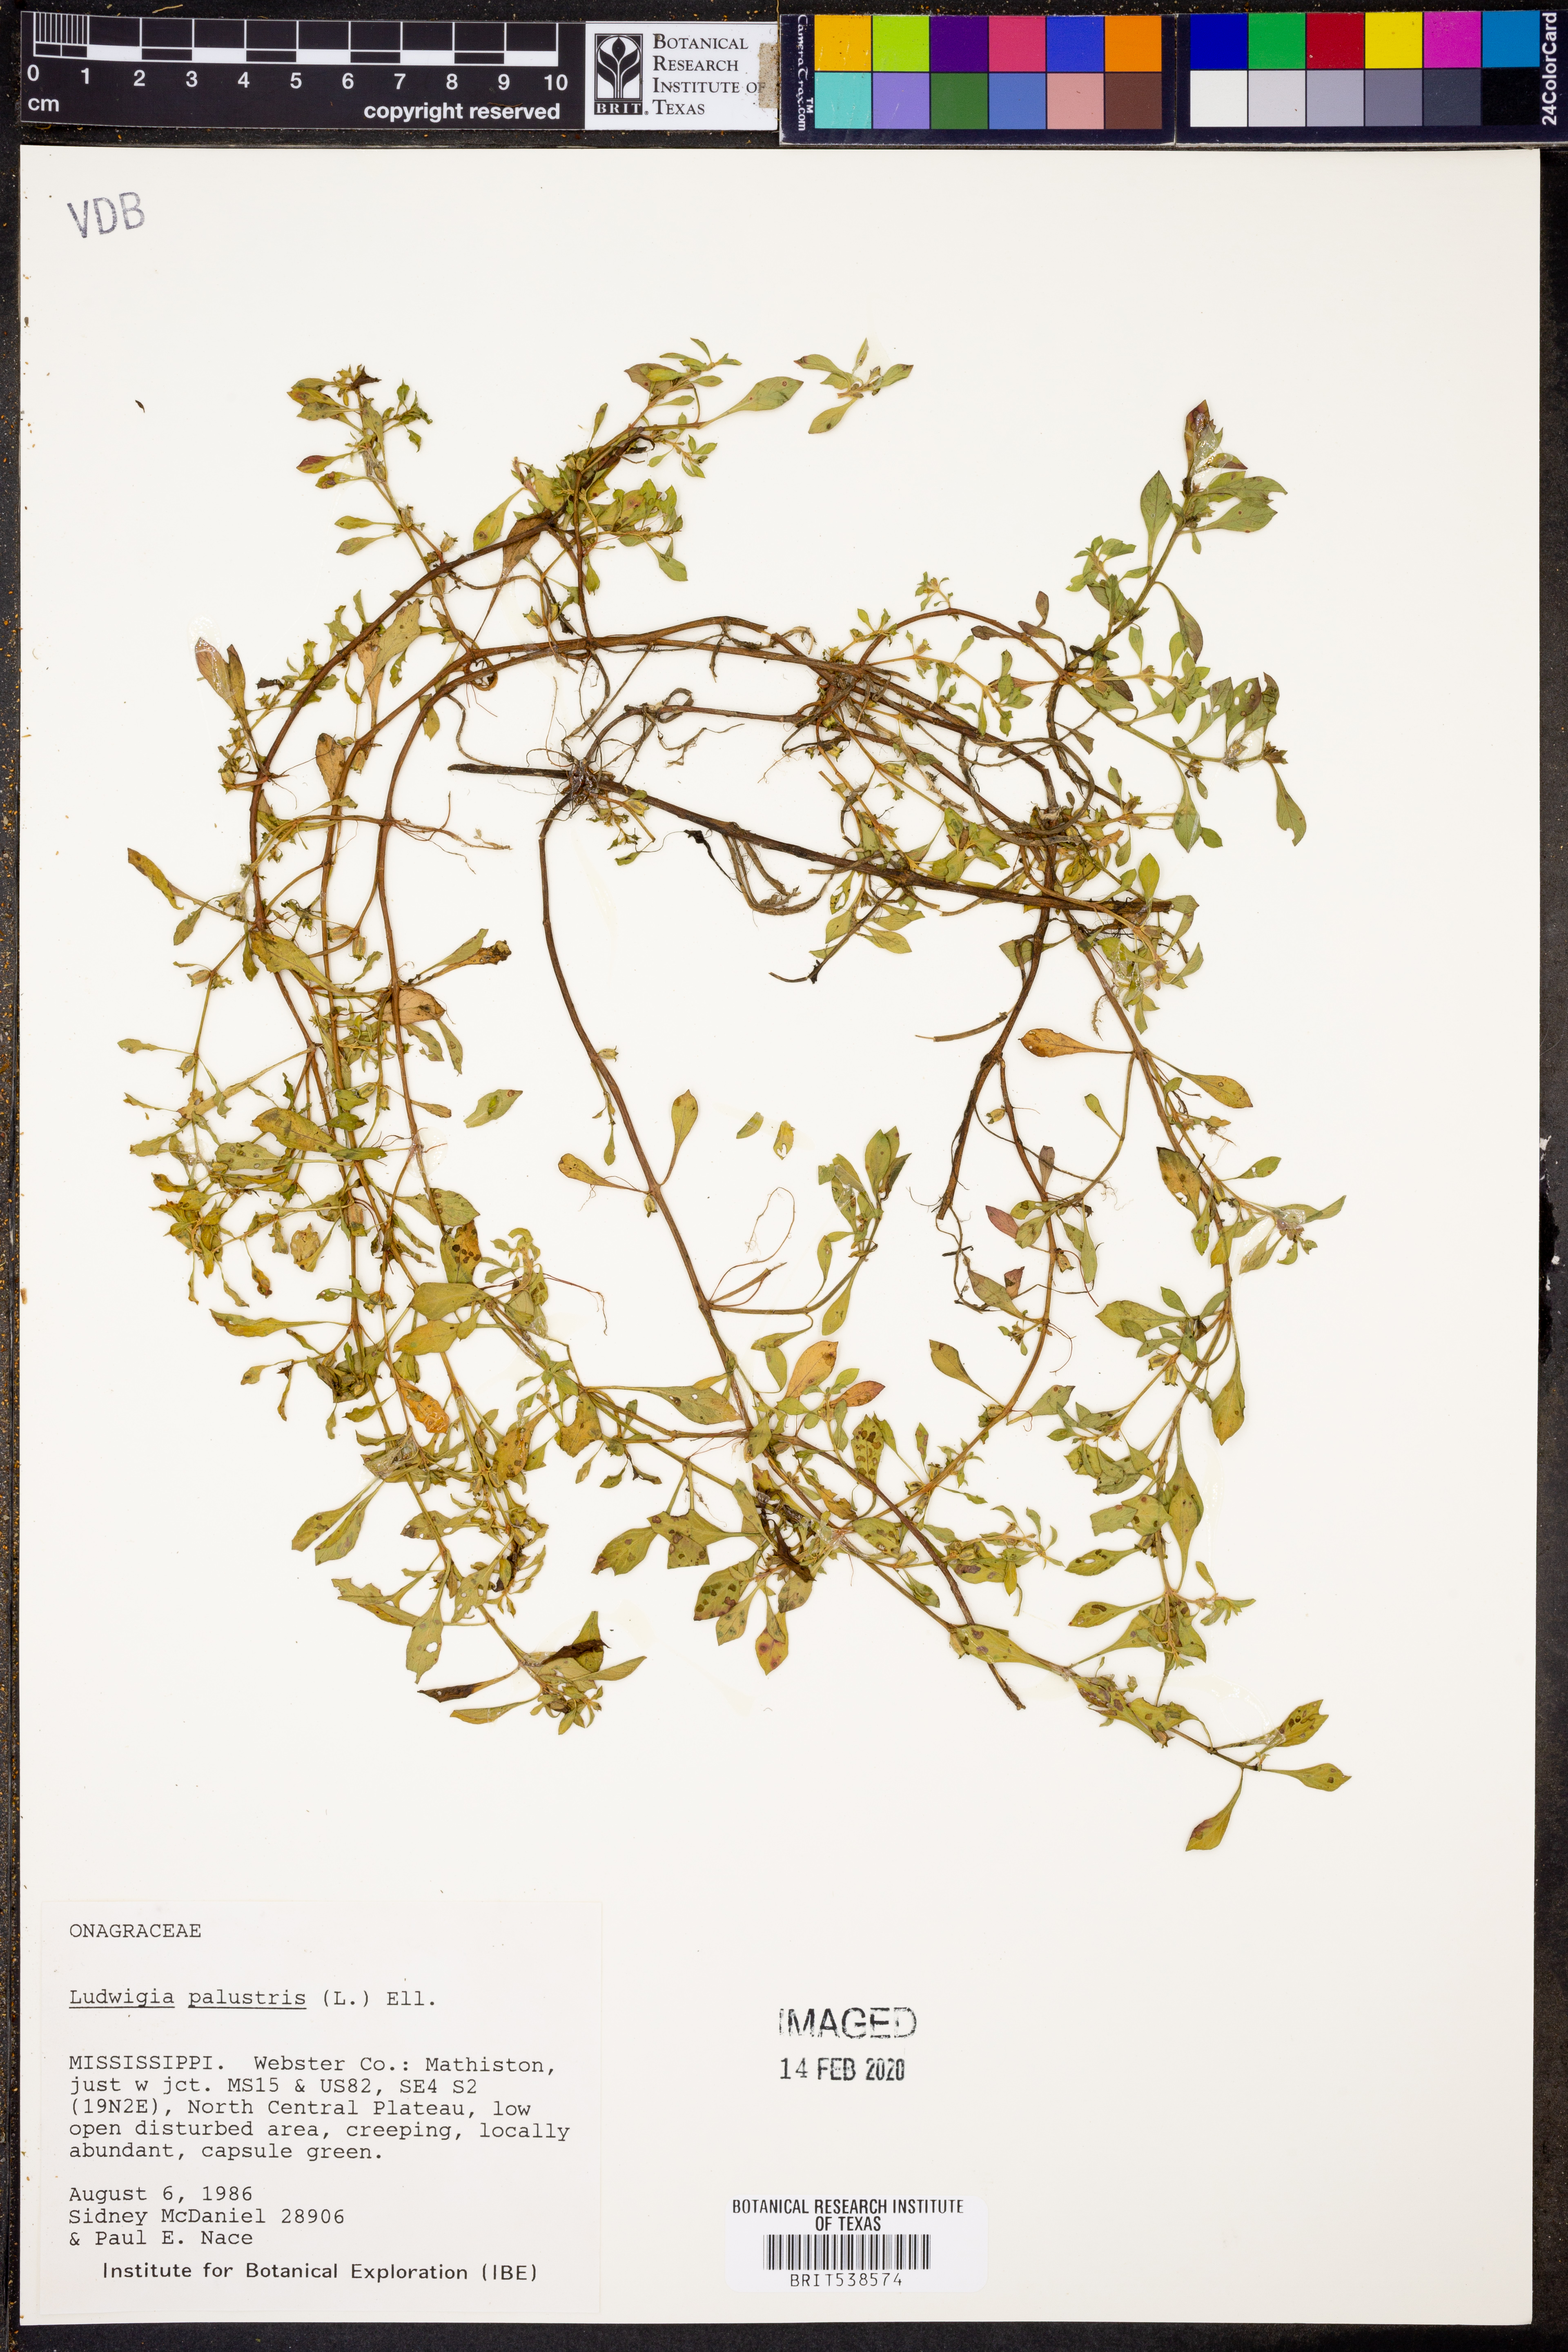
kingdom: Plantae
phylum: Tracheophyta
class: Magnoliopsida
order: Myrtales
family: Onagraceae
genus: Ludwigia
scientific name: Ludwigia palustris
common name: Hampshire-purslane
